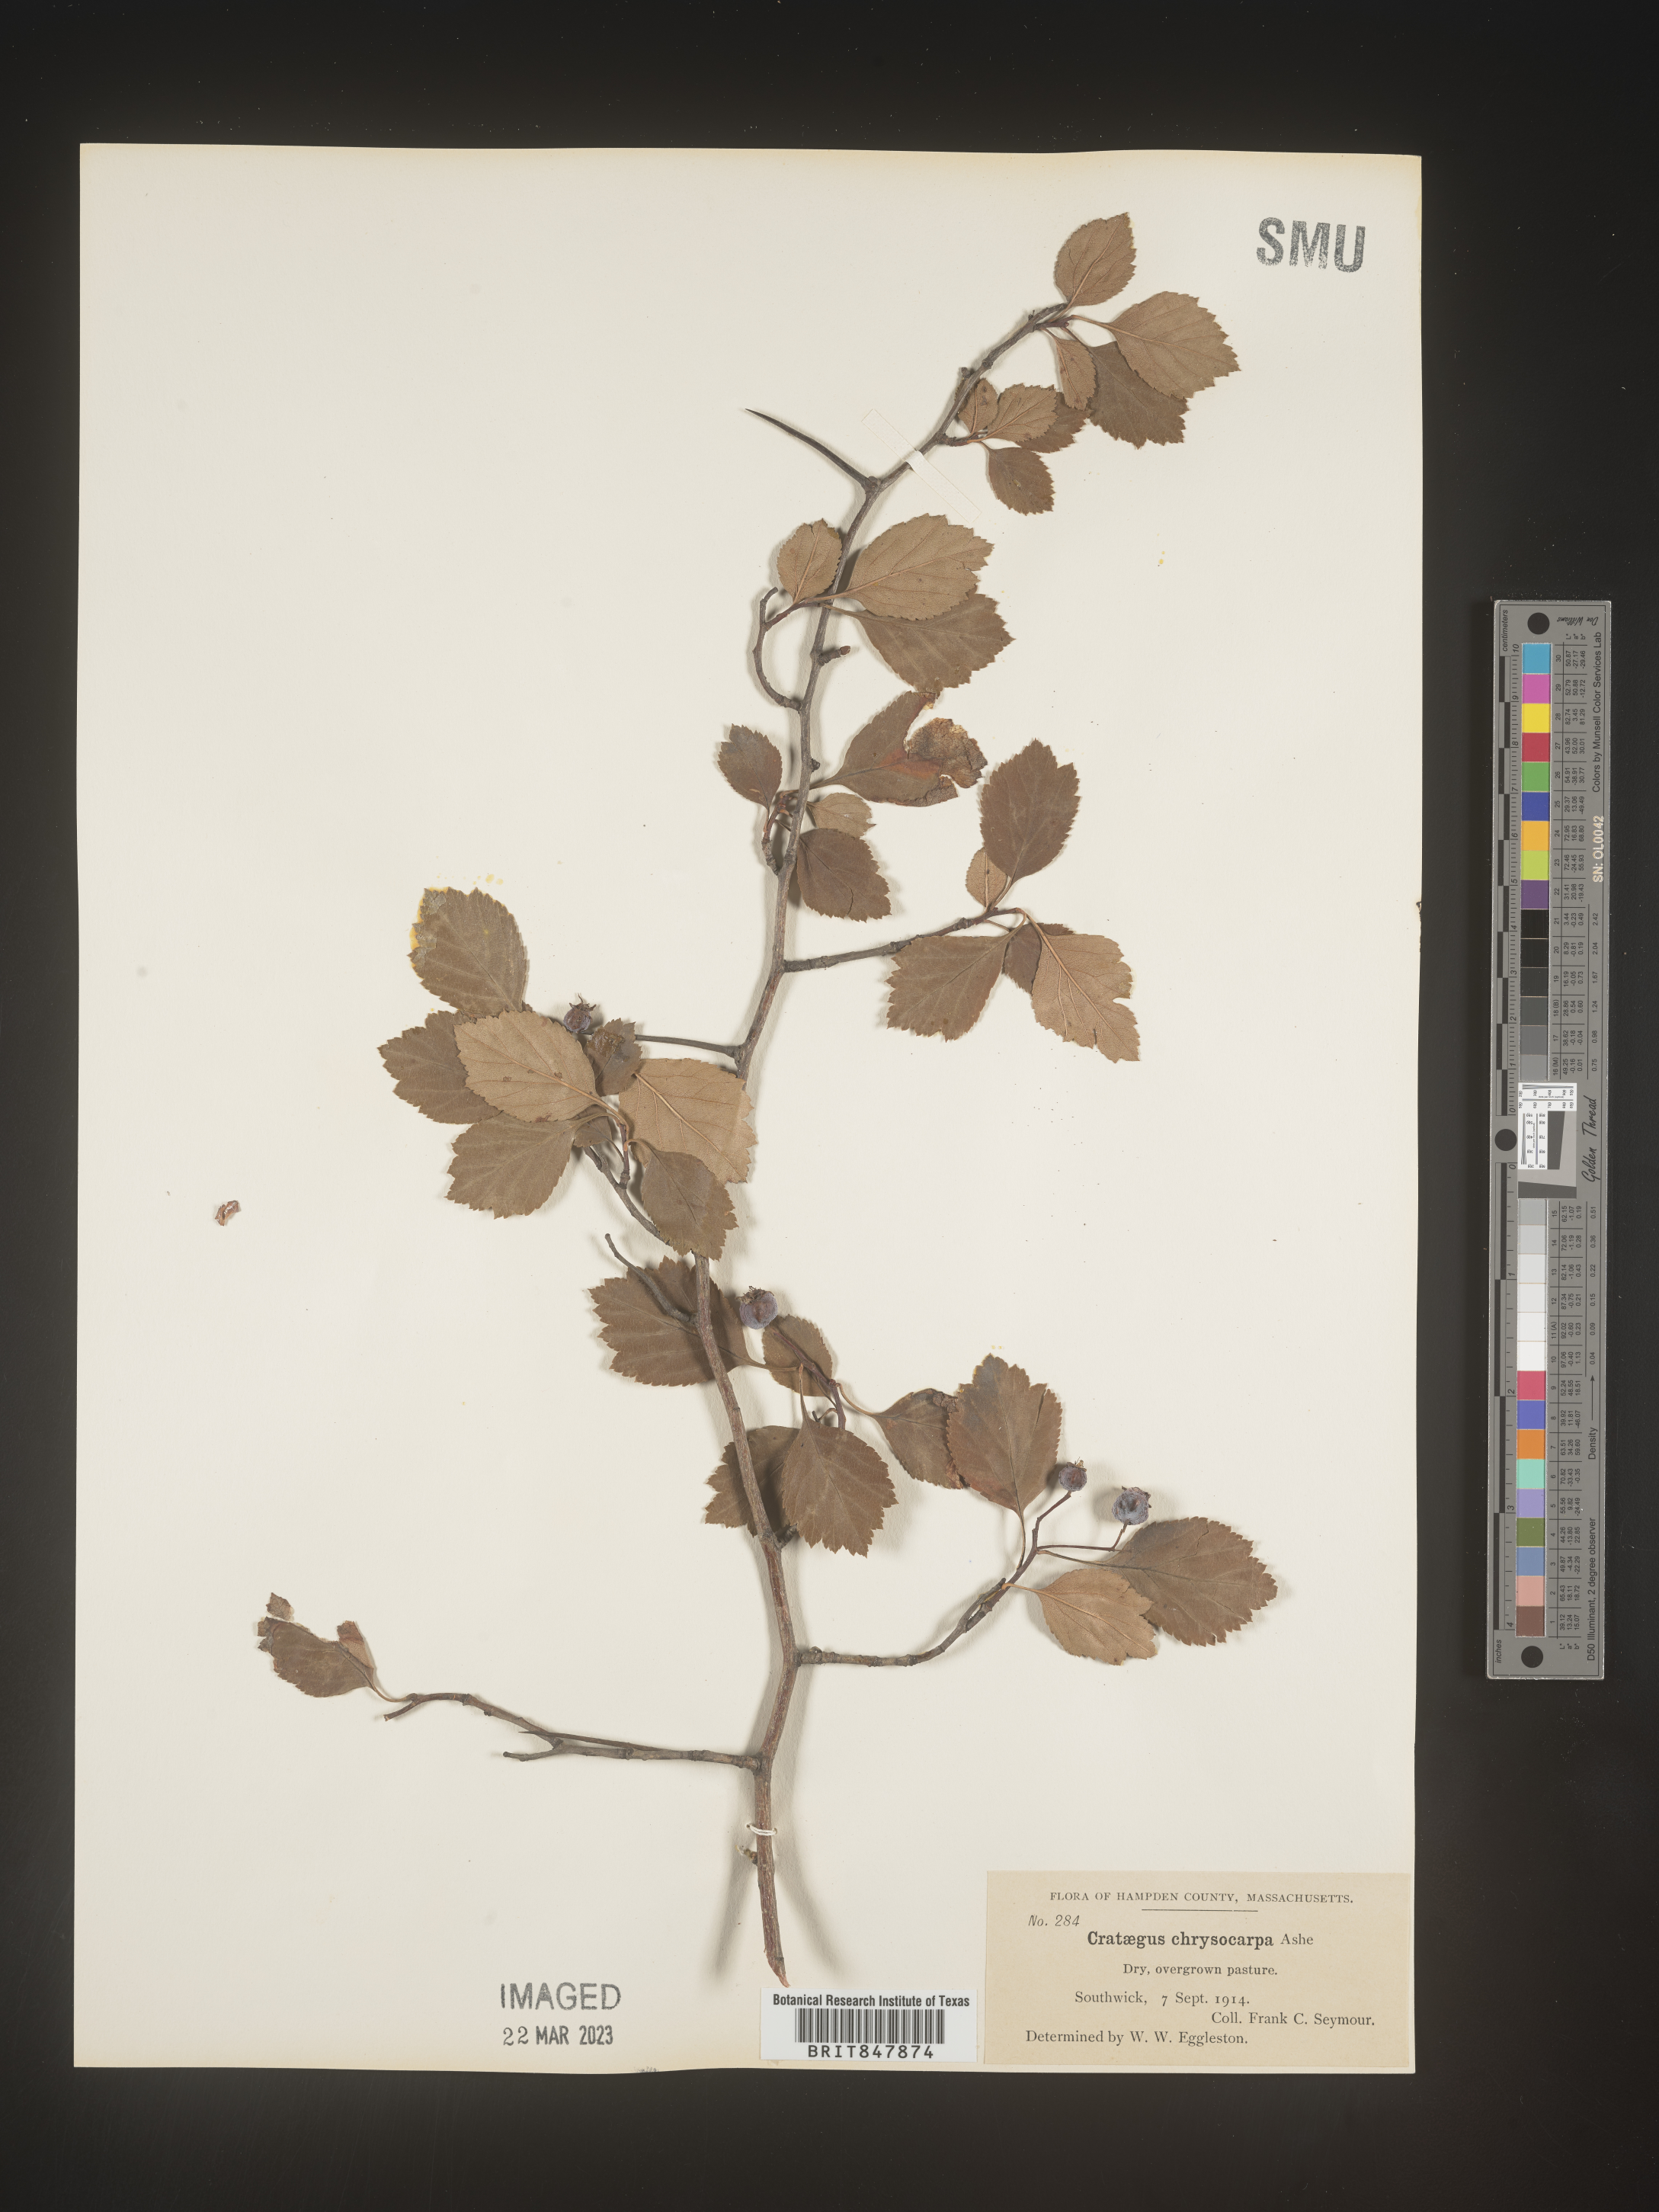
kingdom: Plantae
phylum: Tracheophyta
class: Magnoliopsida
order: Rosales
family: Rosaceae
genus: Crataegus
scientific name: Crataegus chrysocarpa
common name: Fire-berry hawthorn
